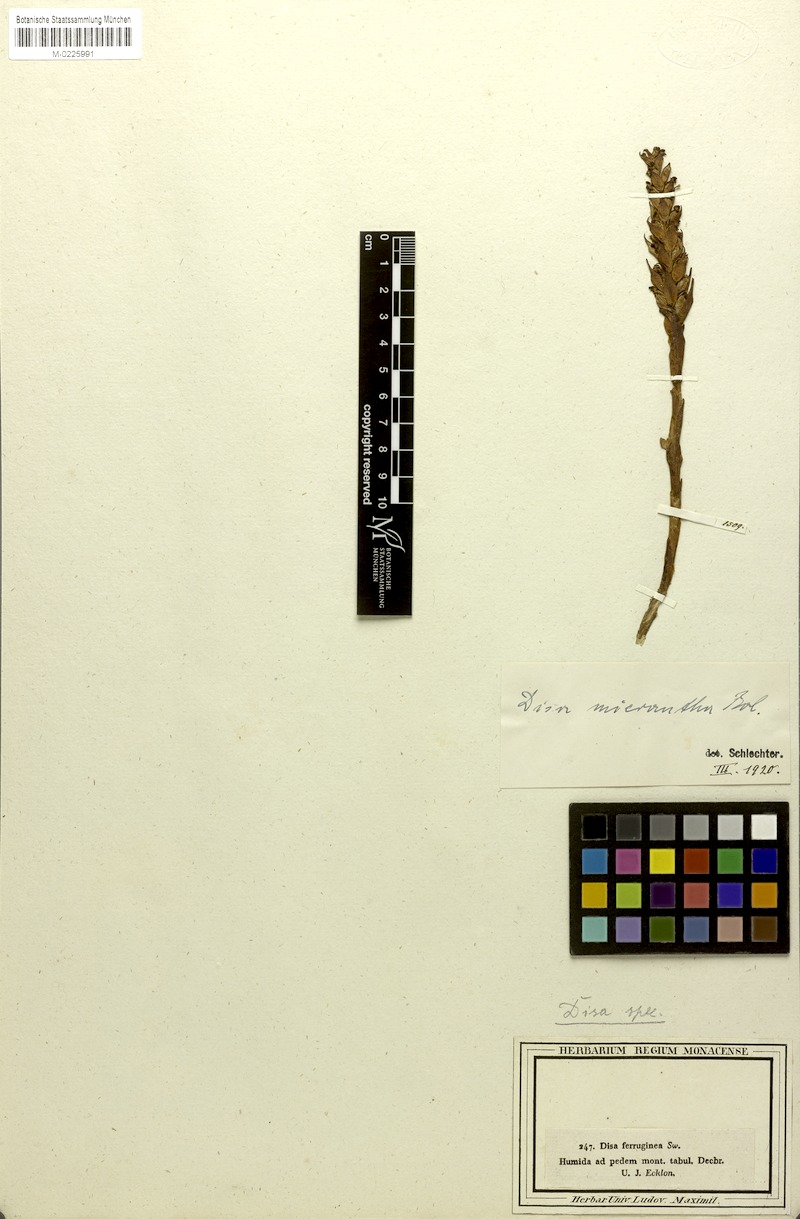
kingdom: Plantae
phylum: Tracheophyta
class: Liliopsida
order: Asparagales
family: Orchidaceae
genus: Disa
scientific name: Disa bracteata
